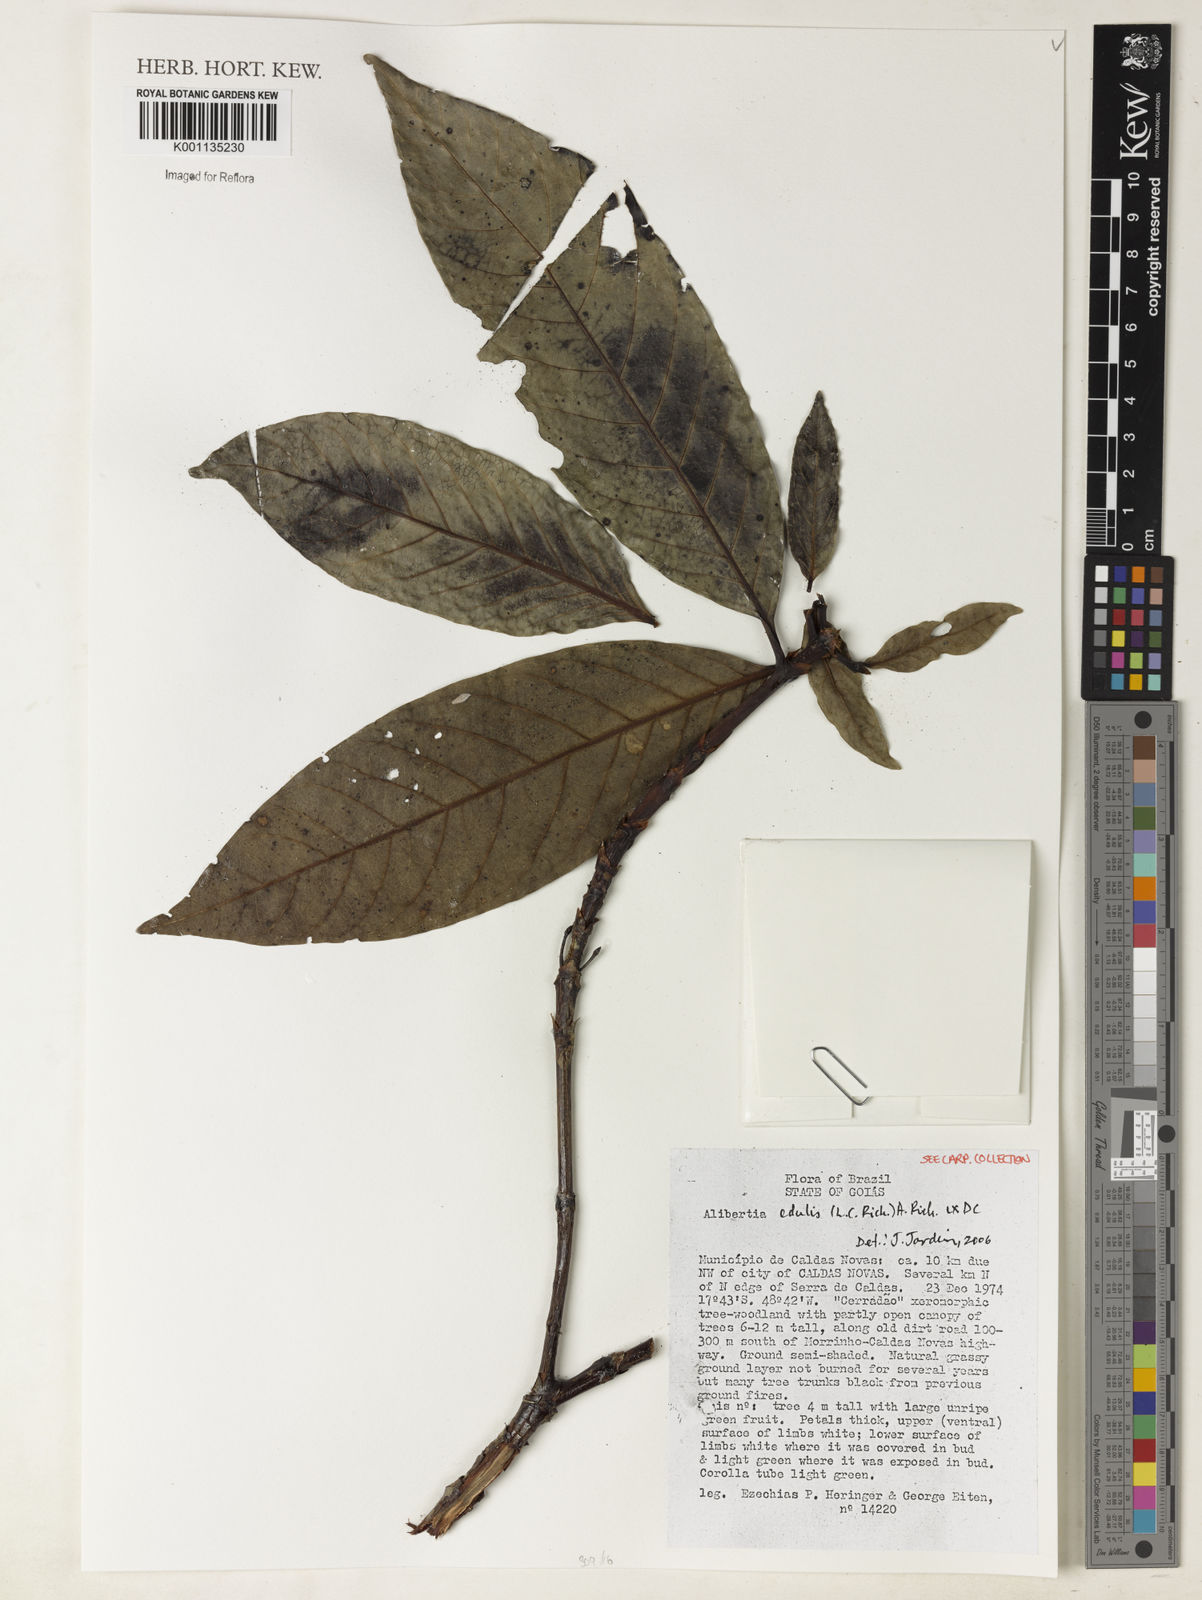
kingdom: Plantae
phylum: Tracheophyta
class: Magnoliopsida
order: Gentianales
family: Rubiaceae
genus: Alibertia
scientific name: Alibertia edulis
